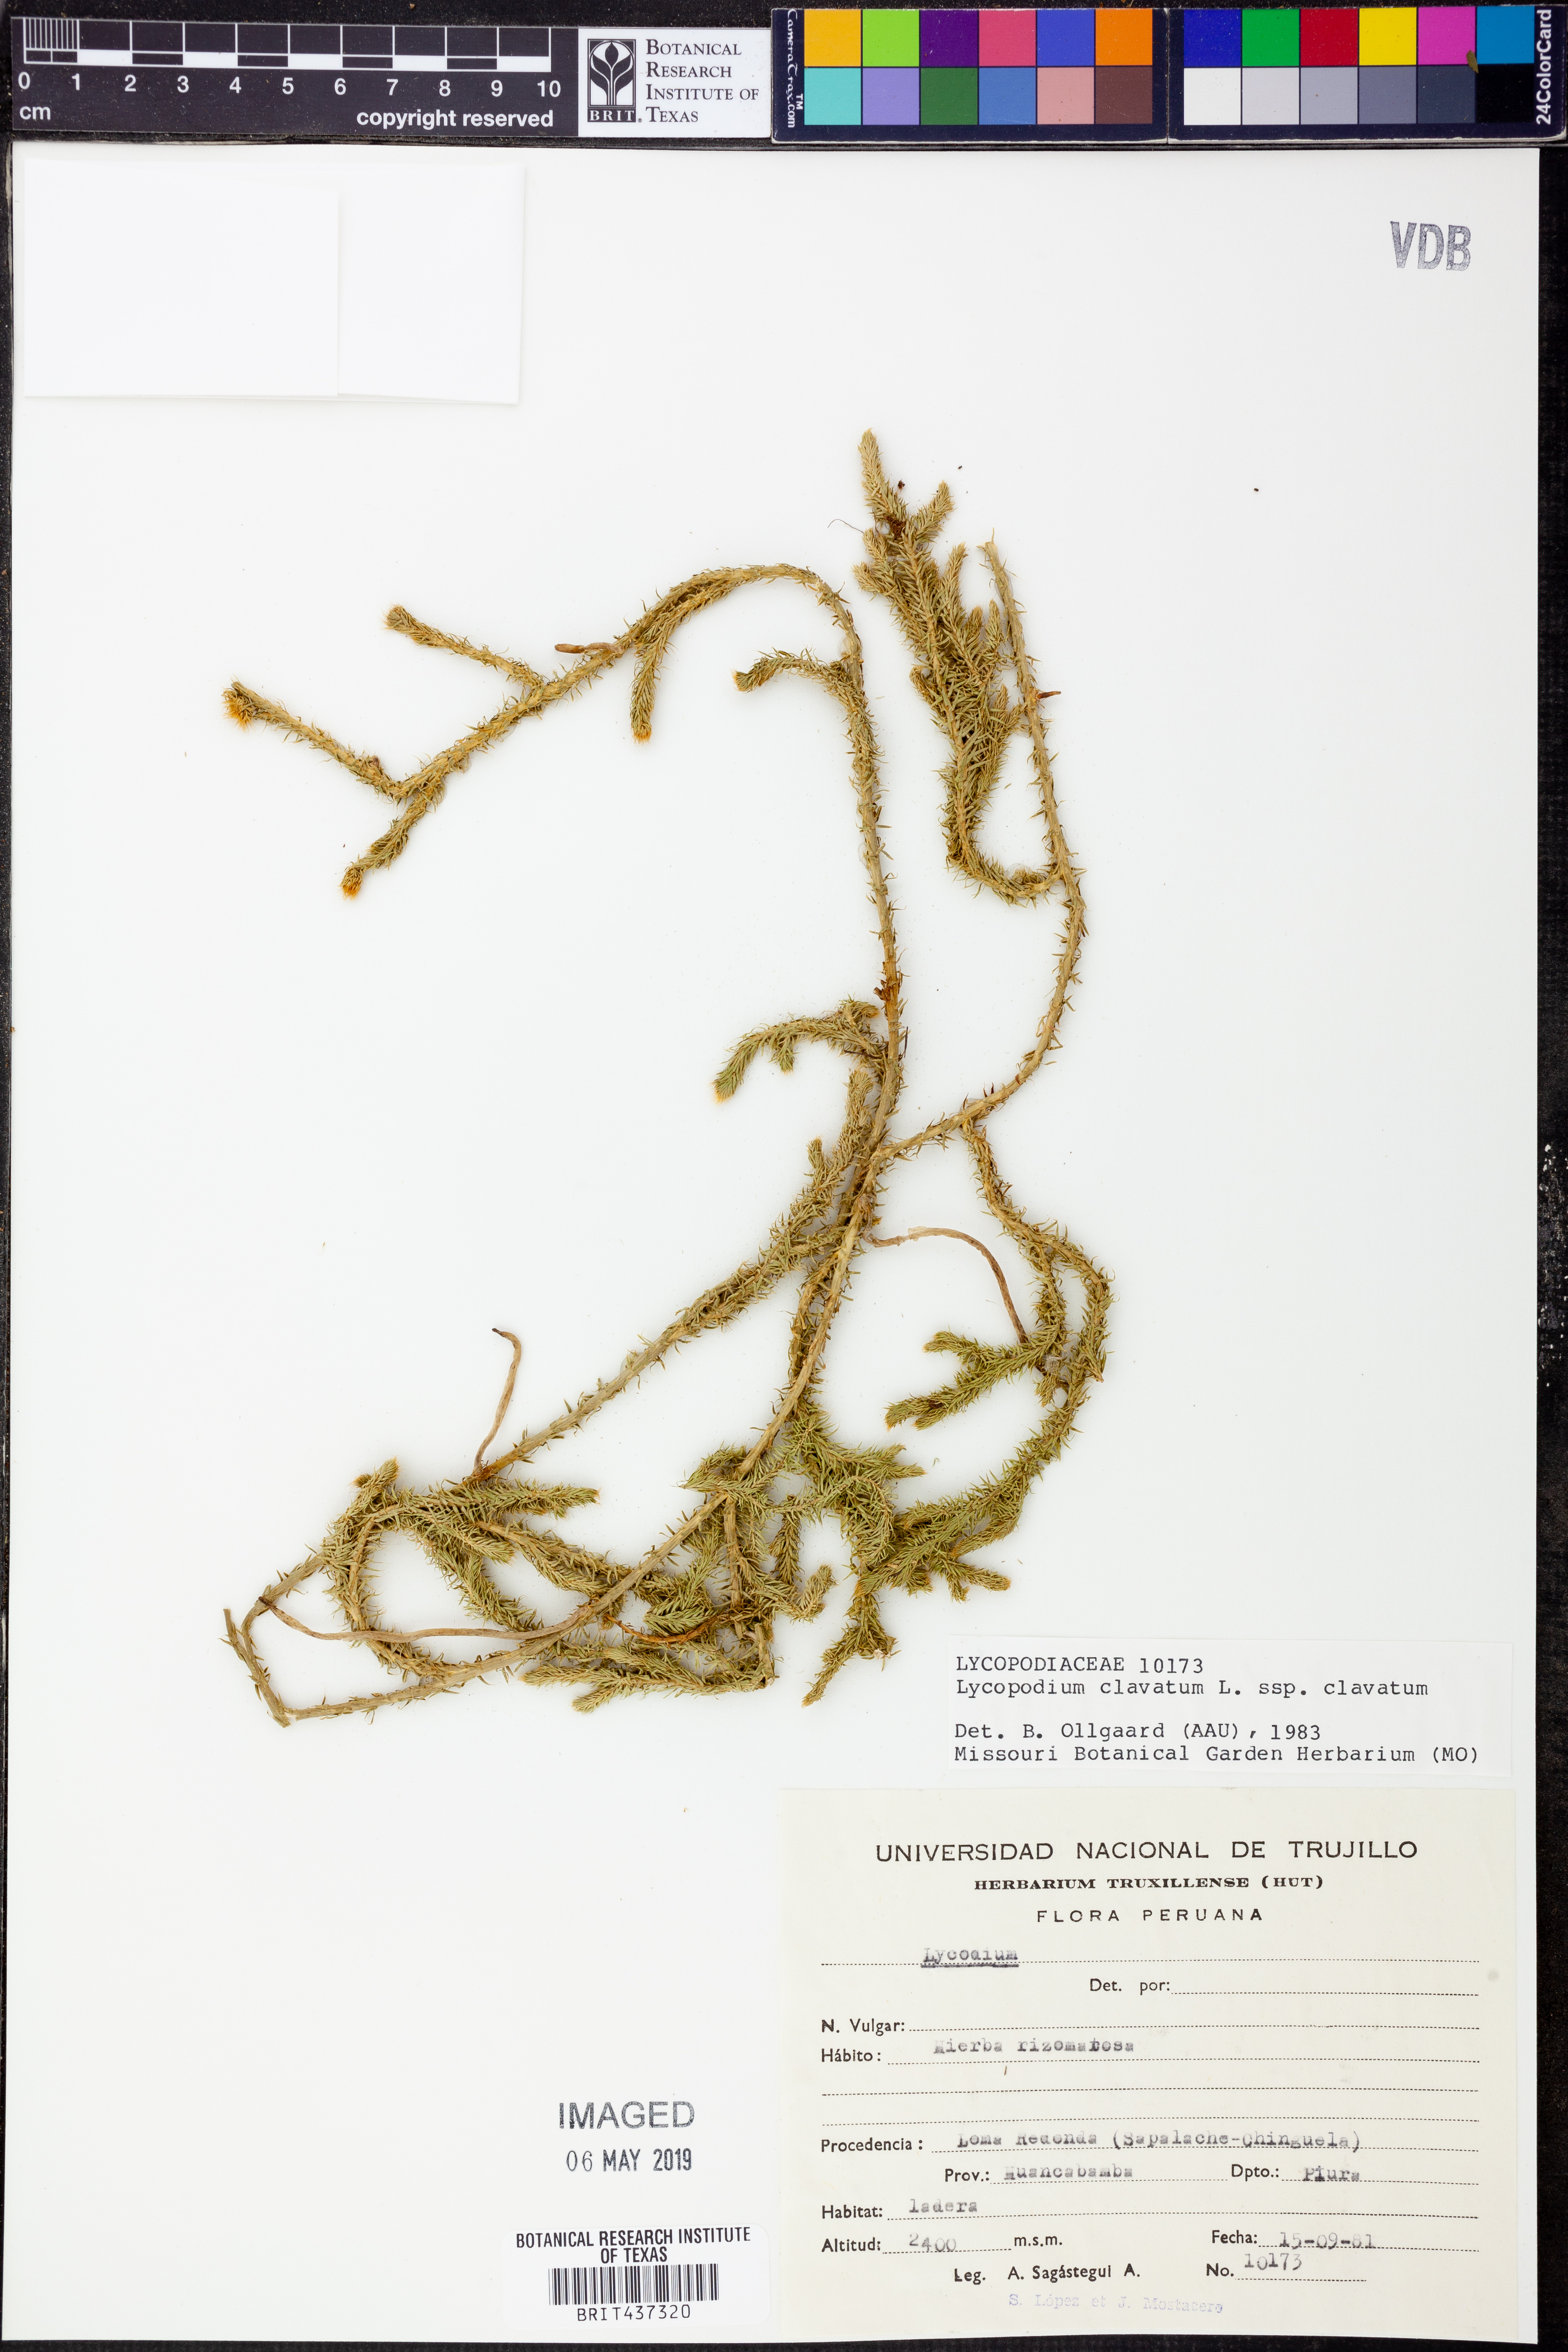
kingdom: Plantae
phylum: Tracheophyta
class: Lycopodiopsida
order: Lycopodiales
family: Lycopodiaceae
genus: Lycopodium
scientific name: Lycopodium clavatum
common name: Stag's-horn clubmoss
